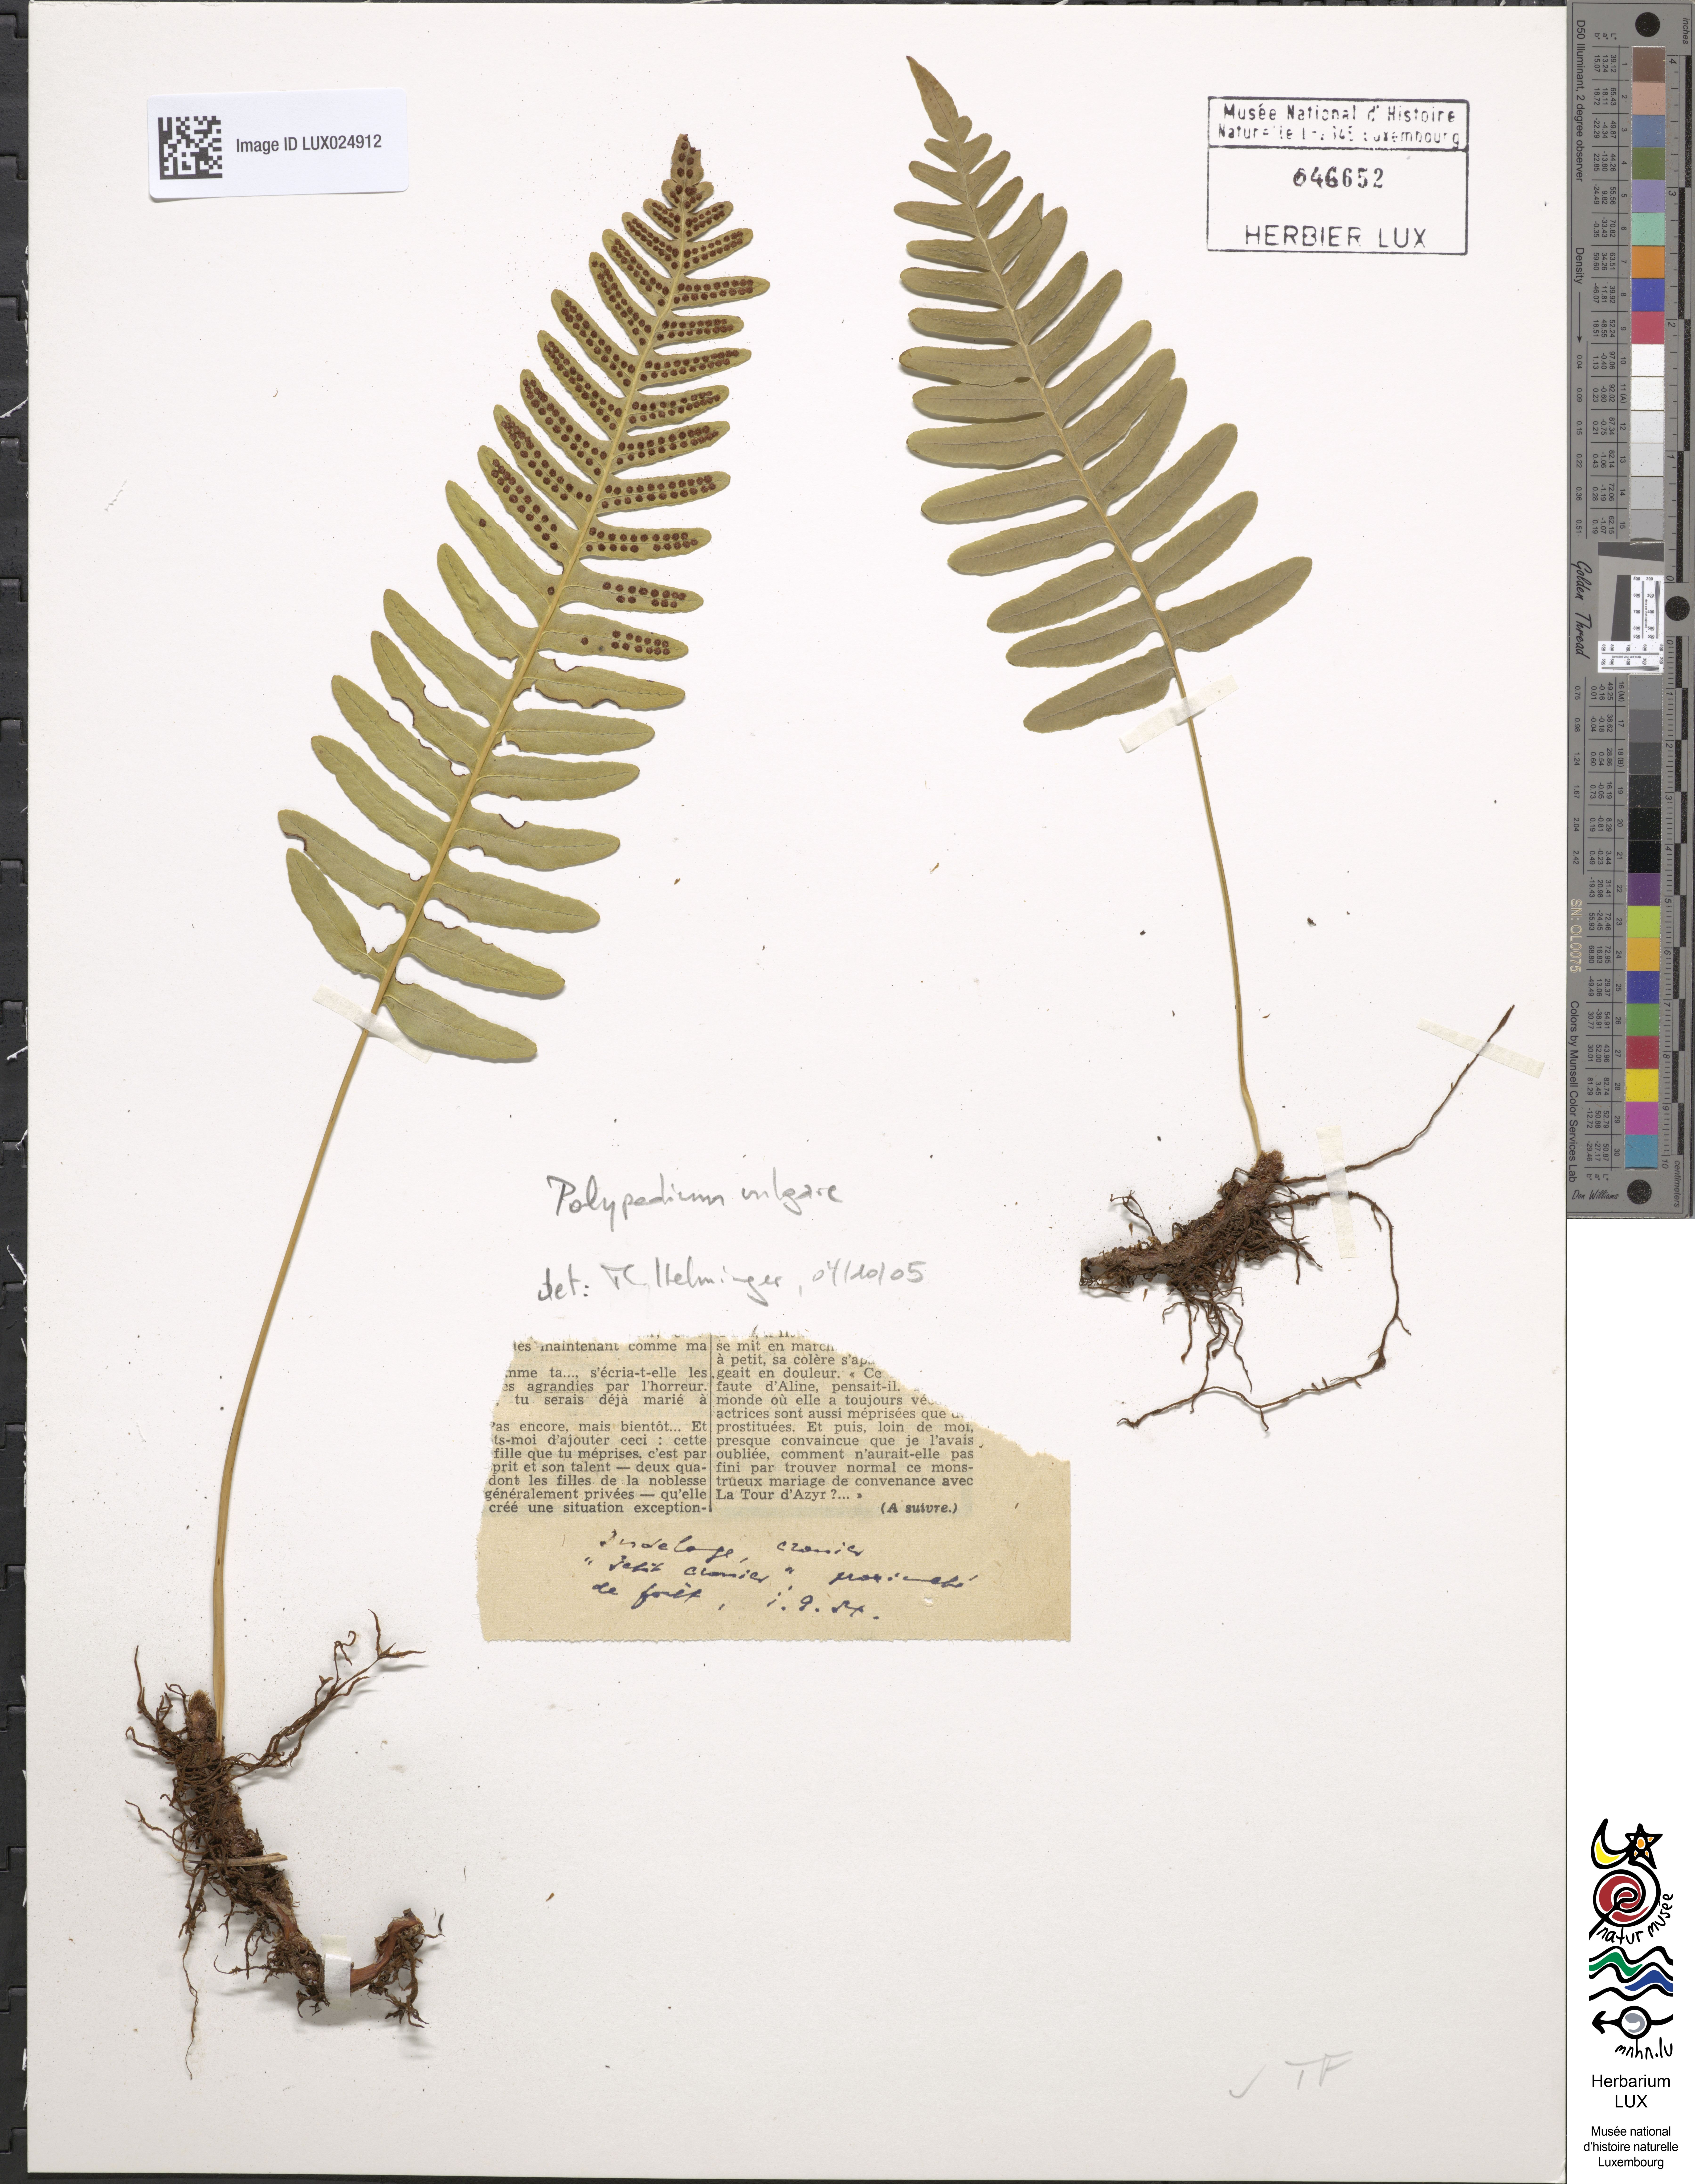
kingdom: Plantae
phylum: Tracheophyta
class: Polypodiopsida
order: Polypodiales
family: Polypodiaceae
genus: Polypodium
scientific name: Polypodium vulgare
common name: Common polypody
